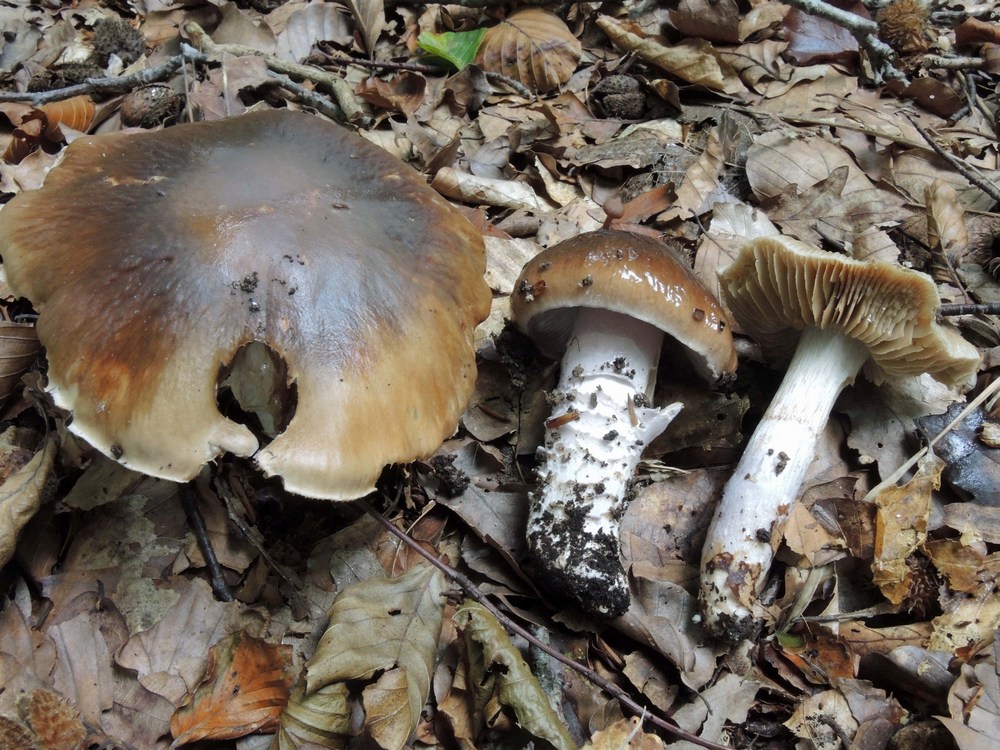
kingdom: Fungi
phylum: Basidiomycota
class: Agaricomycetes
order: Agaricales
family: Cortinariaceae
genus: Cortinarius
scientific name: Cortinarius elatior
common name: høj slørhat
